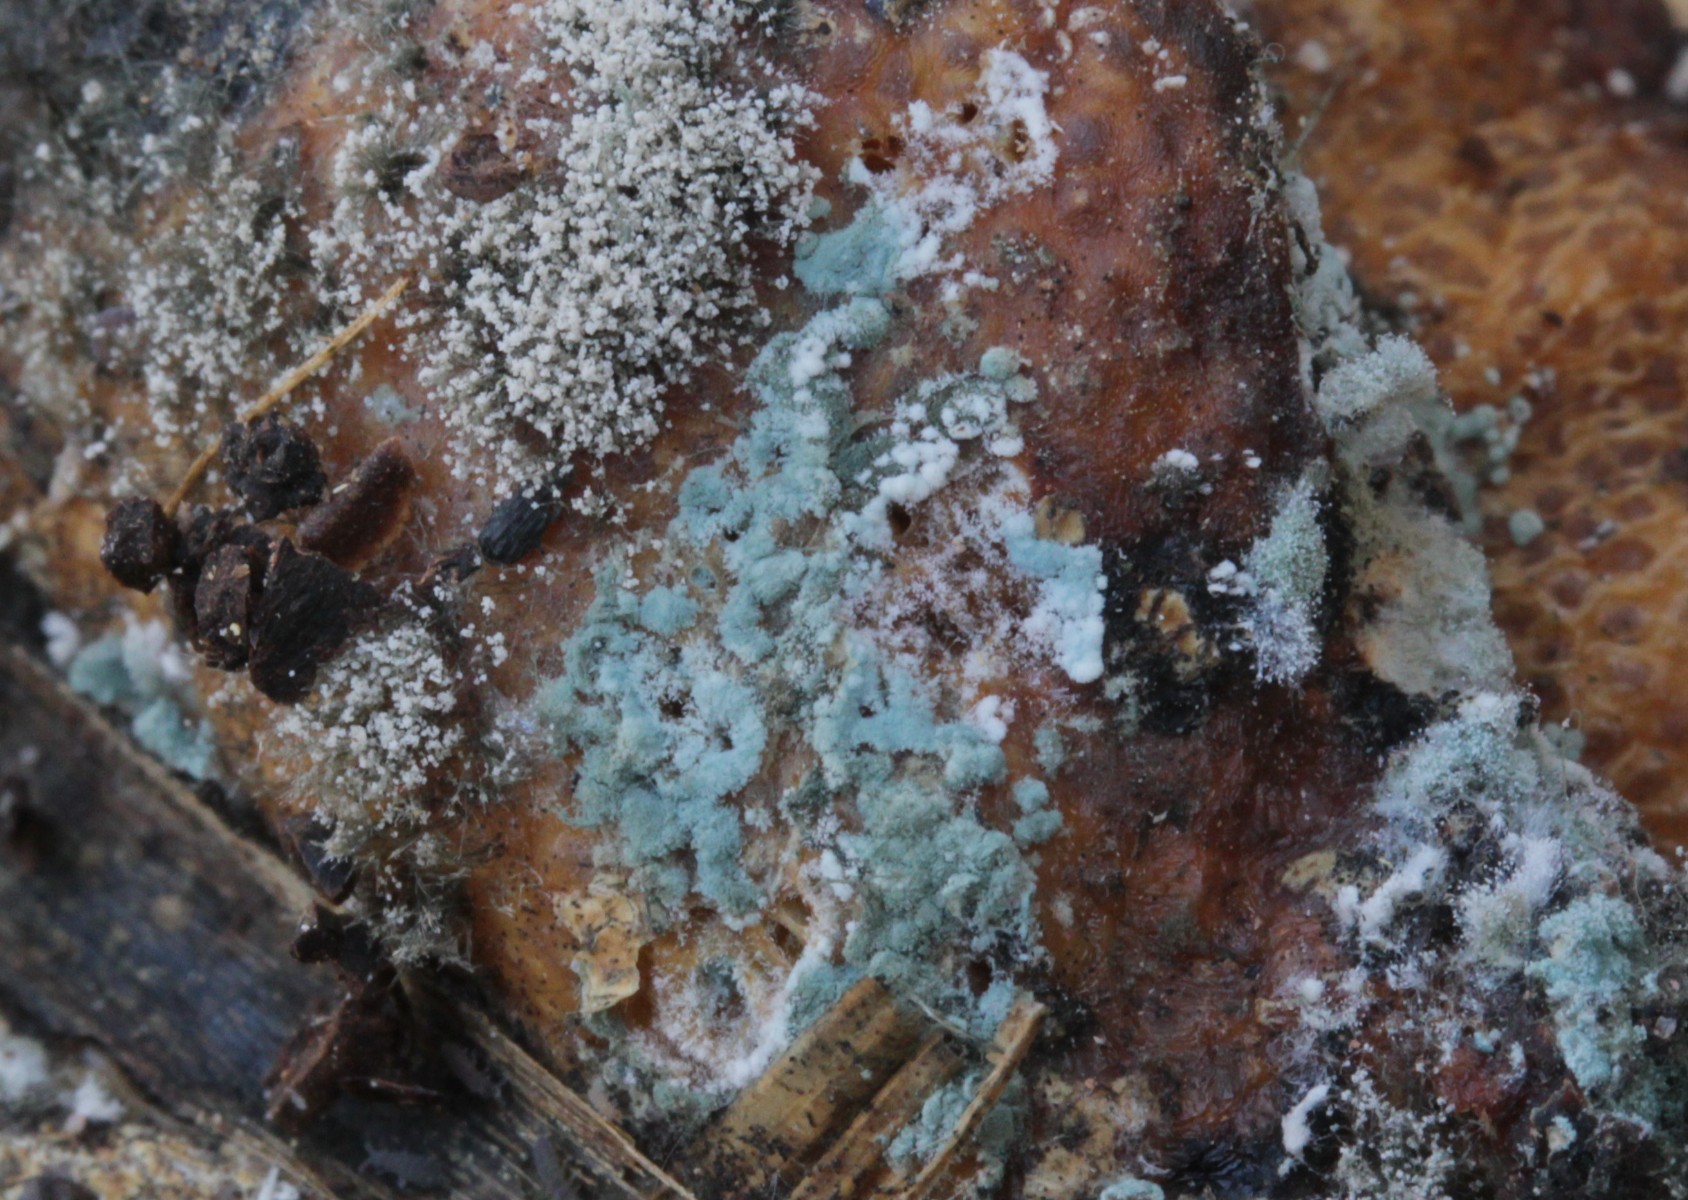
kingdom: Fungi
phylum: Ascomycota
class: Eurotiomycetes
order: Eurotiales
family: Aspergillaceae
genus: Penicillium
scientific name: Penicillium
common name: penselskimmel
